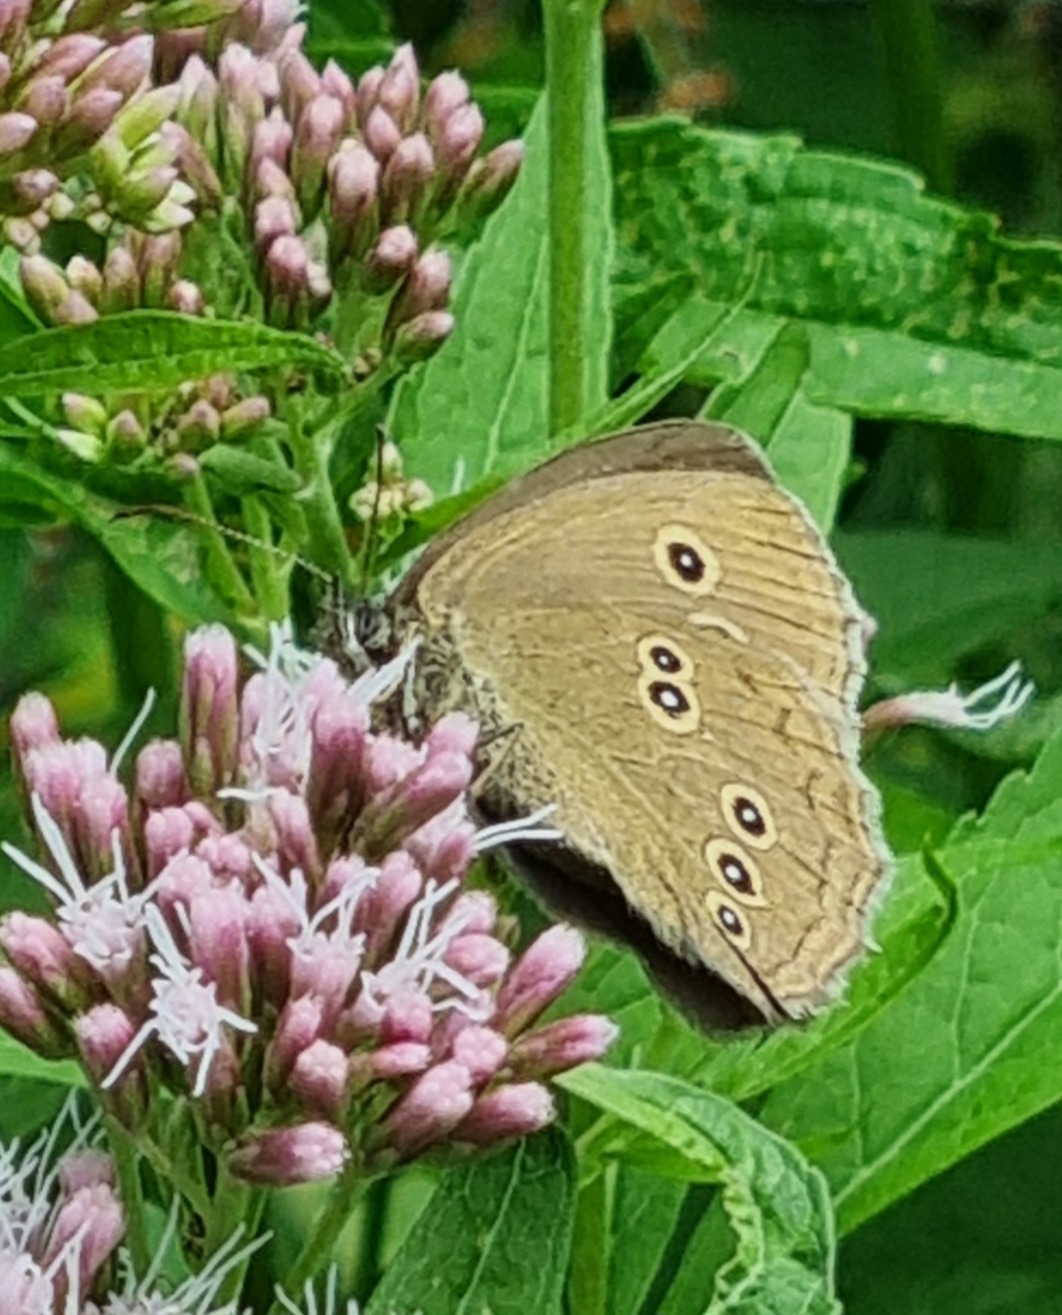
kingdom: Animalia
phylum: Arthropoda
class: Insecta
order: Lepidoptera
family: Nymphalidae
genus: Aphantopus
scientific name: Aphantopus hyperantus
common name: Engrandøje
